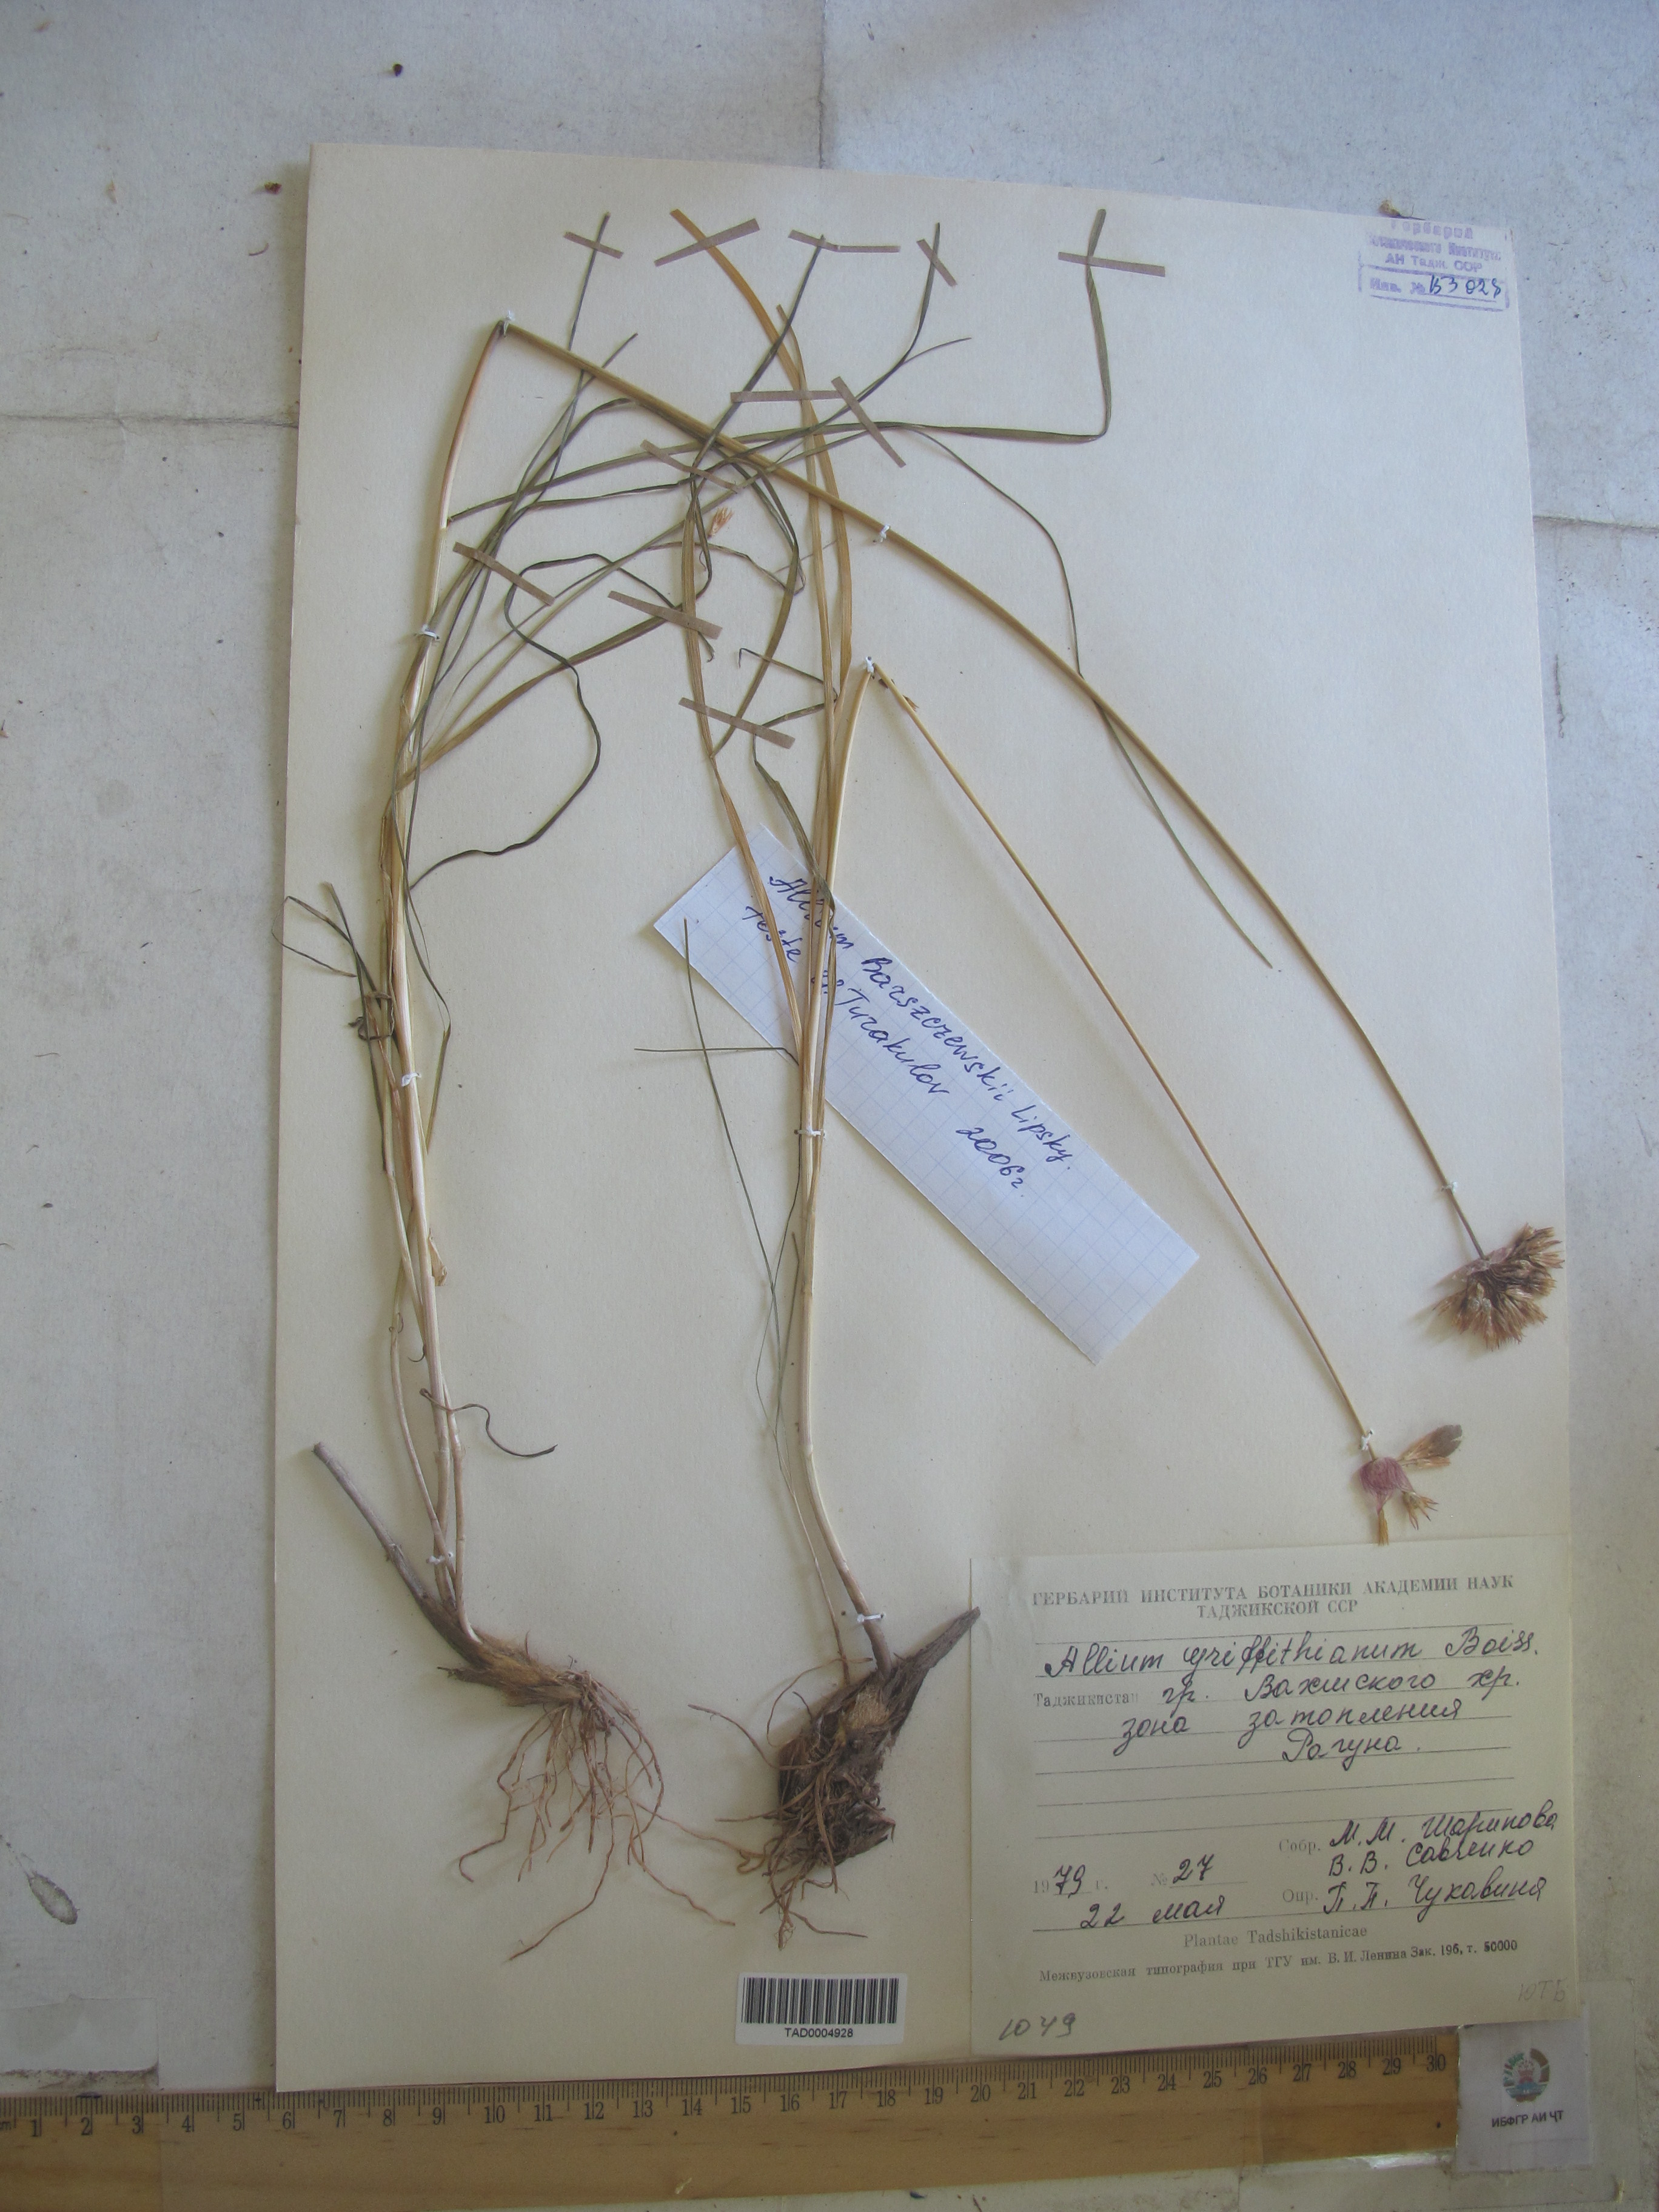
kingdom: Plantae
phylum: Tracheophyta
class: Liliopsida
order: Asparagales
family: Amaryllidaceae
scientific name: Amaryllidaceae
